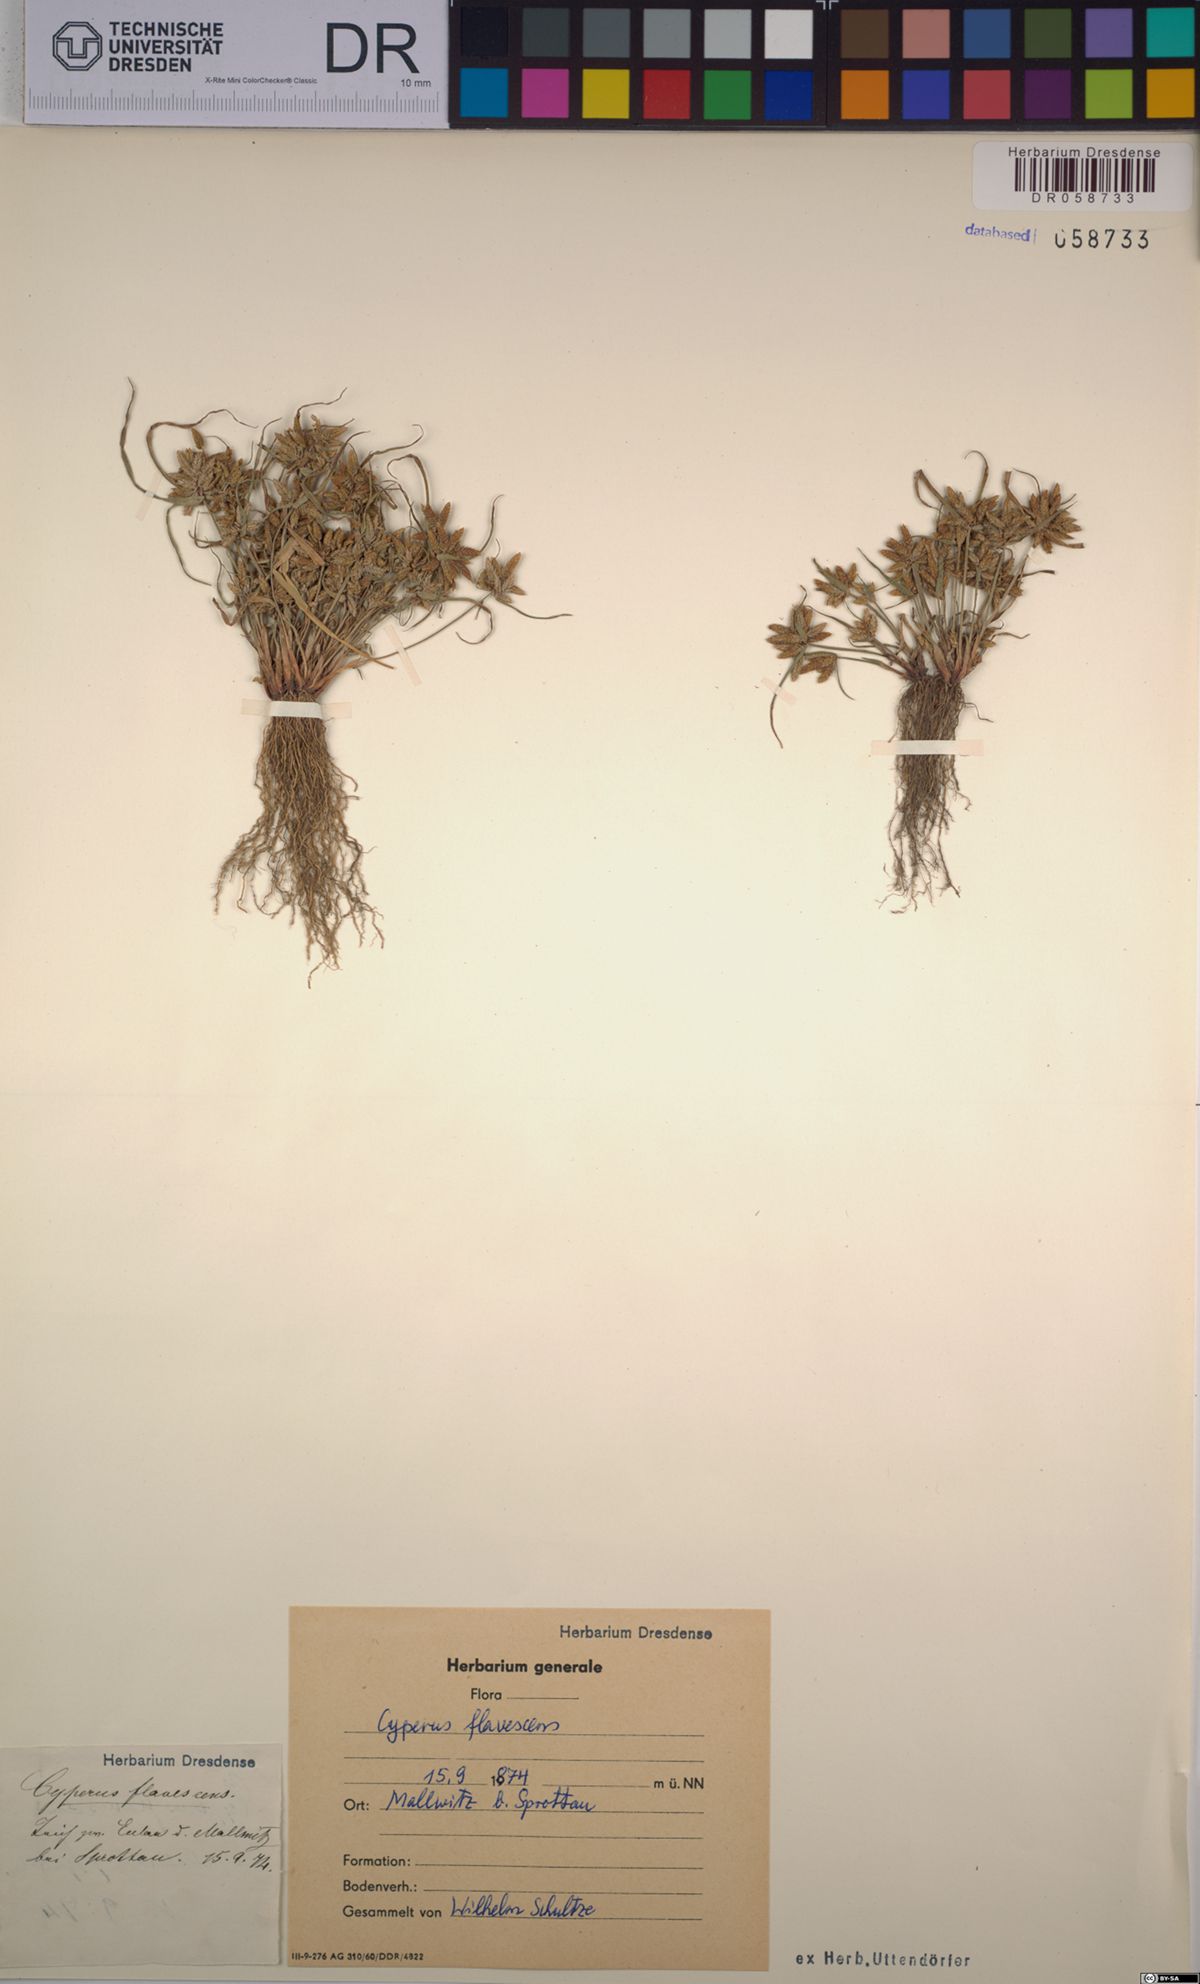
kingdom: Plantae
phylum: Tracheophyta
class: Liliopsida
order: Poales
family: Cyperaceae
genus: Cyperus
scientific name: Cyperus flavescens
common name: Yellow galingale
